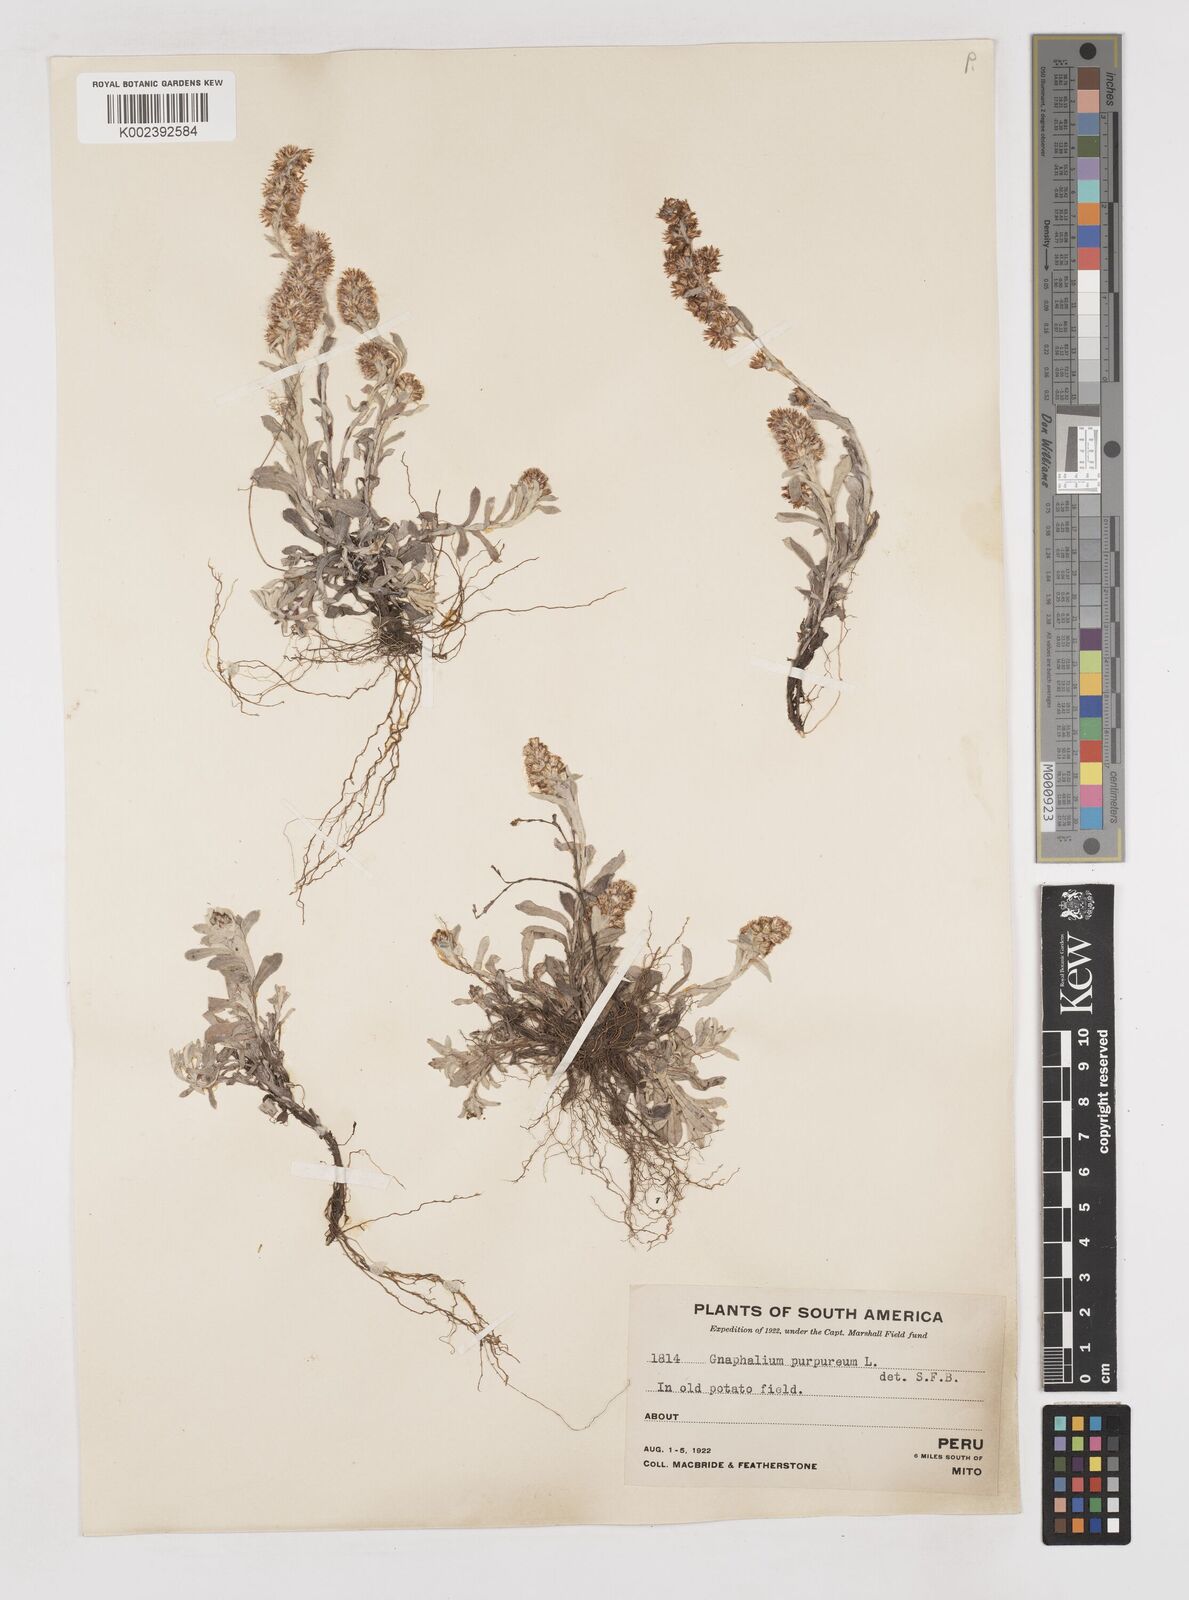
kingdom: Plantae
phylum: Tracheophyta
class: Magnoliopsida
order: Asterales
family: Asteraceae
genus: Pseudognaphalium
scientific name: Pseudognaphalium purpurascens
